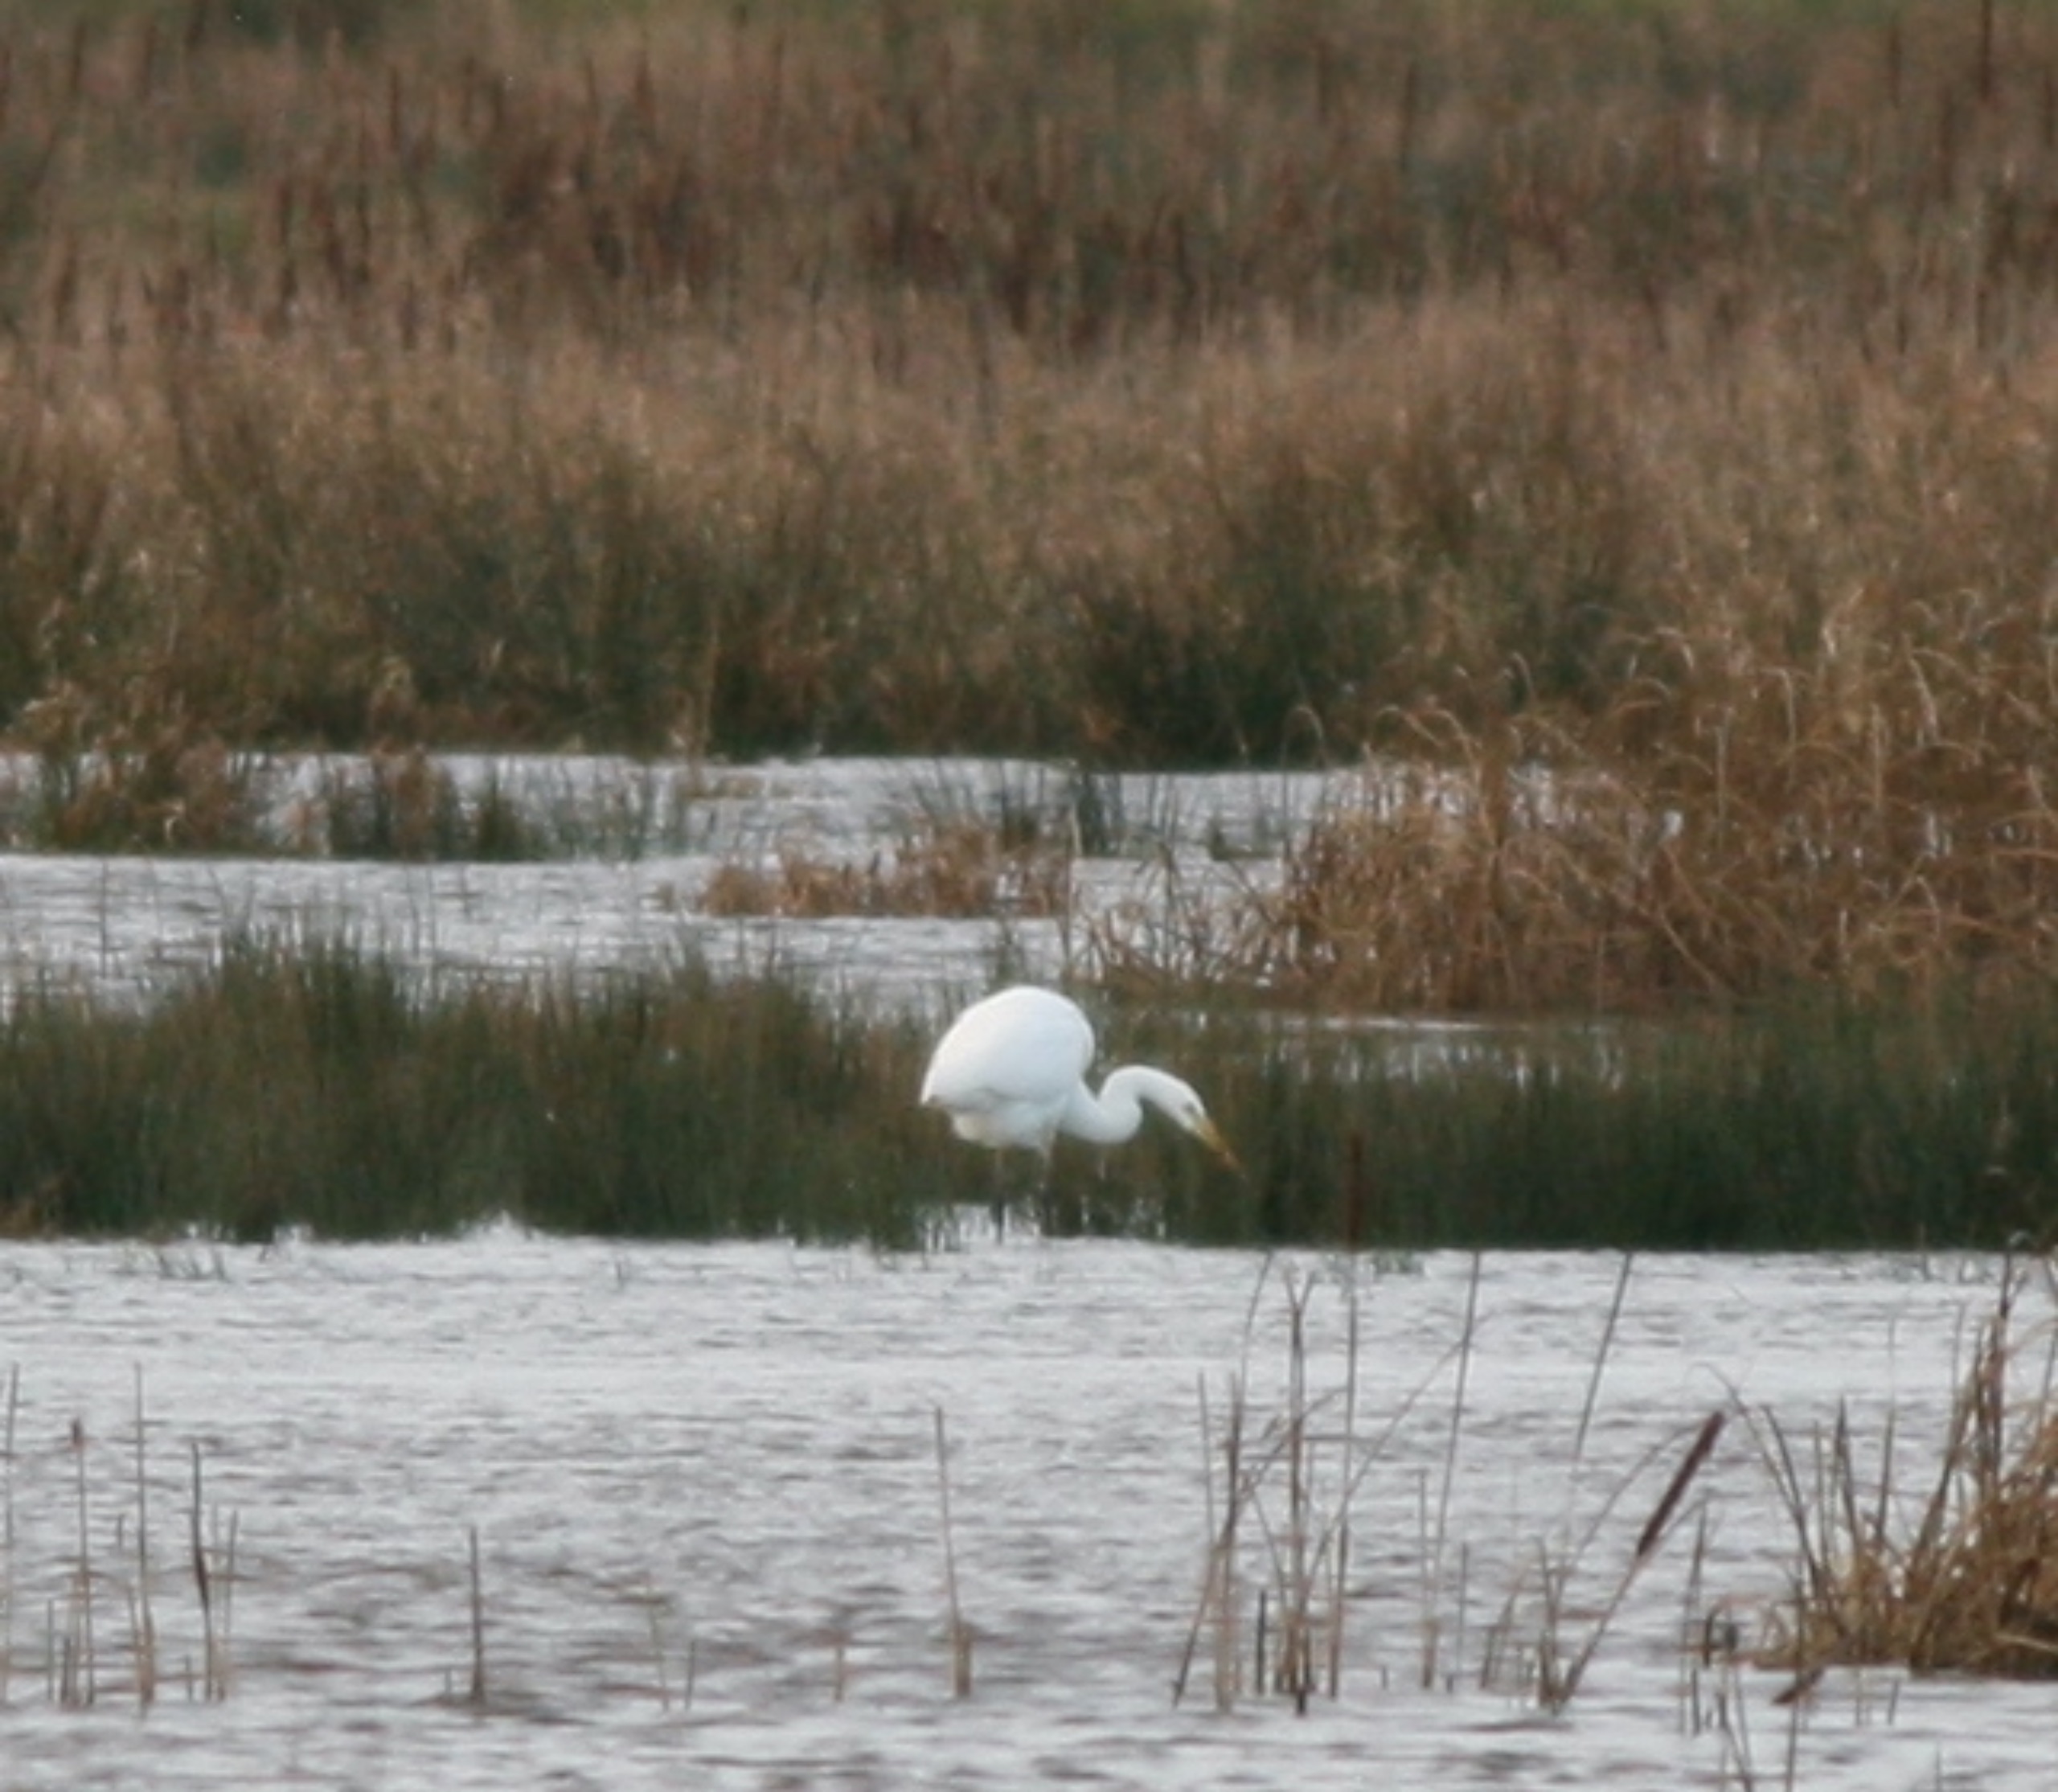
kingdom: Animalia
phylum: Chordata
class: Aves
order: Pelecaniformes
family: Ardeidae
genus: Ardea
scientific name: Ardea alba
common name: Sølvhejre
